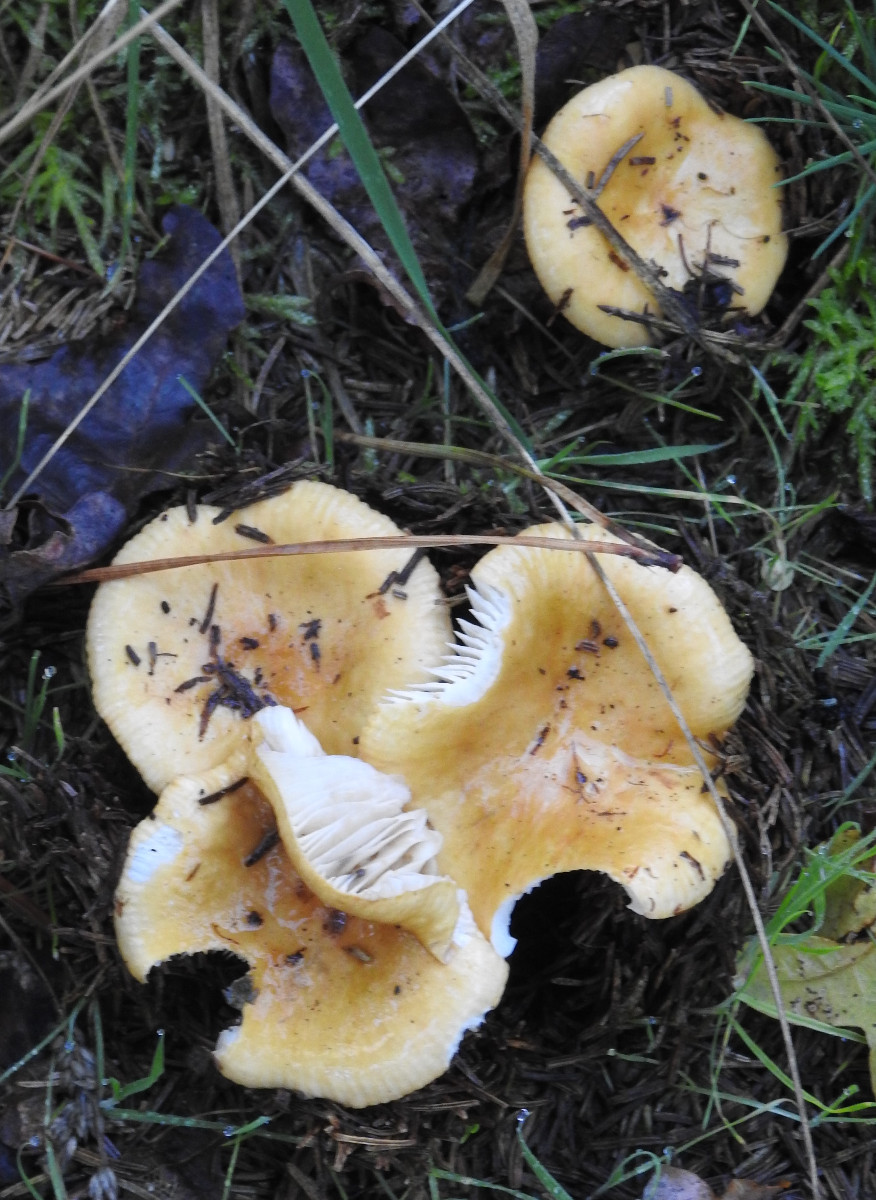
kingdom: Fungi
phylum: Basidiomycota
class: Agaricomycetes
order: Russulales
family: Russulaceae
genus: Russula
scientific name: Russula ochroleuca
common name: okkergul skørhat
